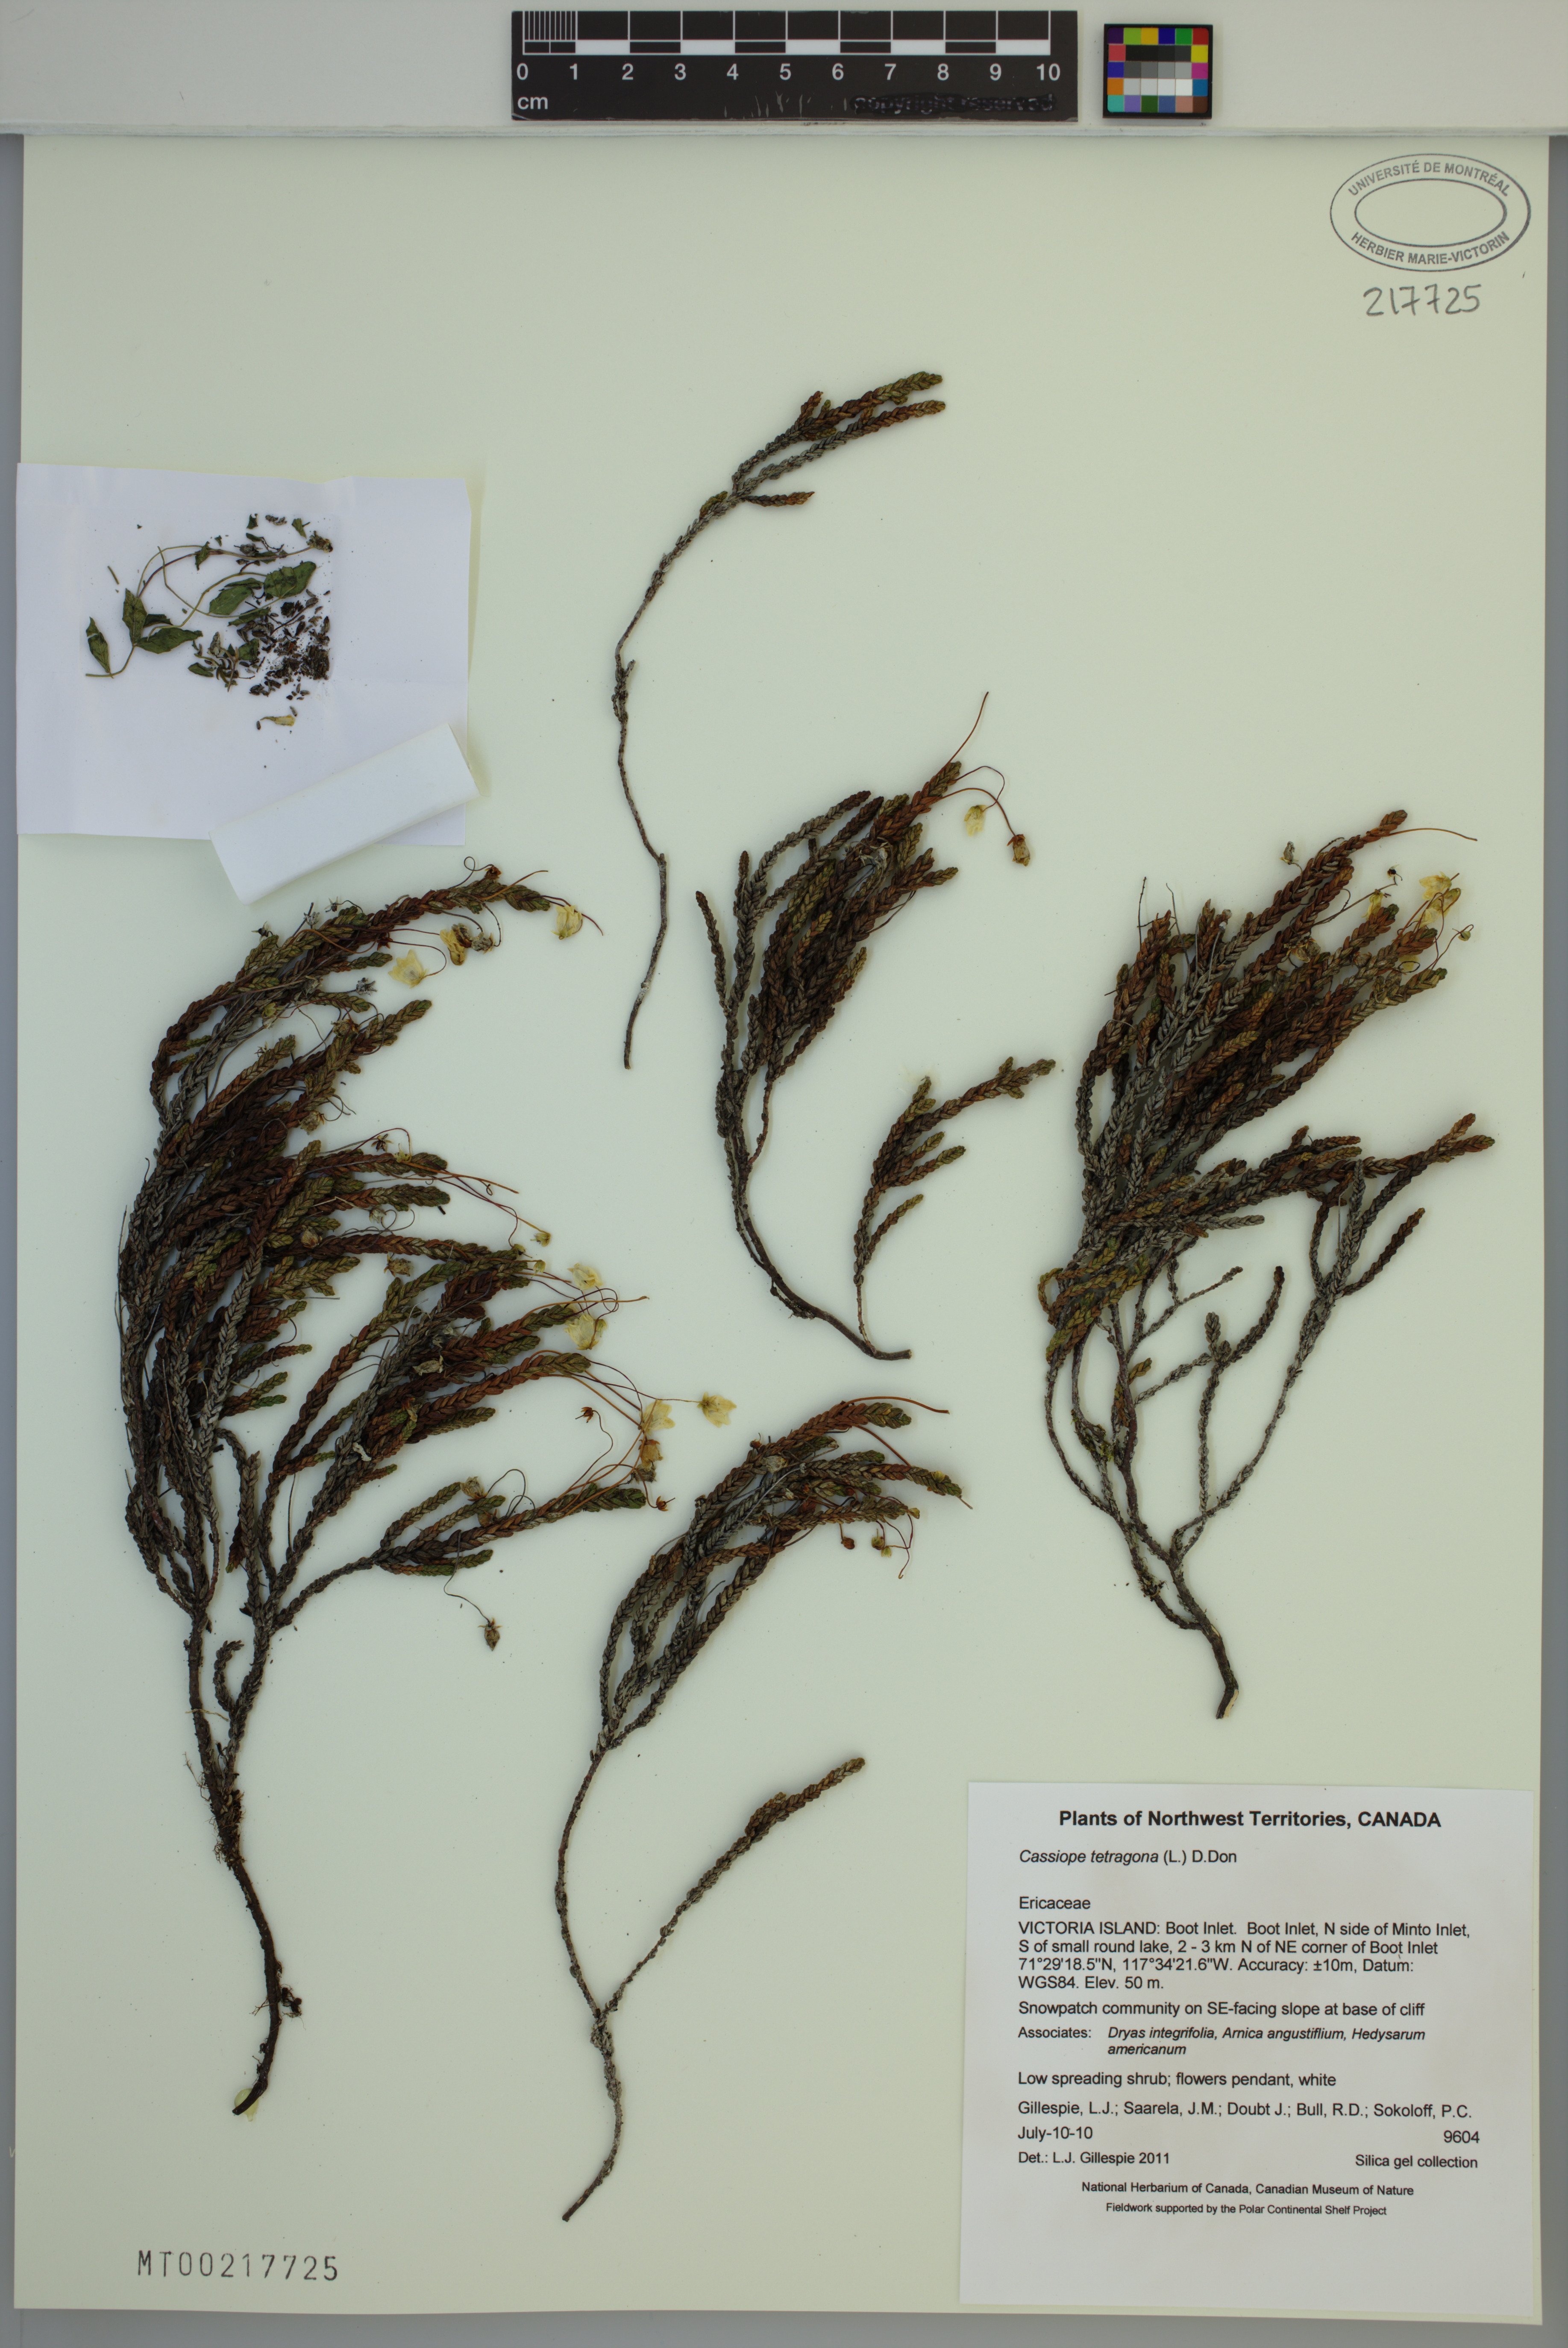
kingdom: Plantae
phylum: Tracheophyta
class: Magnoliopsida
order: Ericales
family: Ericaceae
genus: Cassiope
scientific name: Cassiope tetragona
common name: Arctic bell heather
